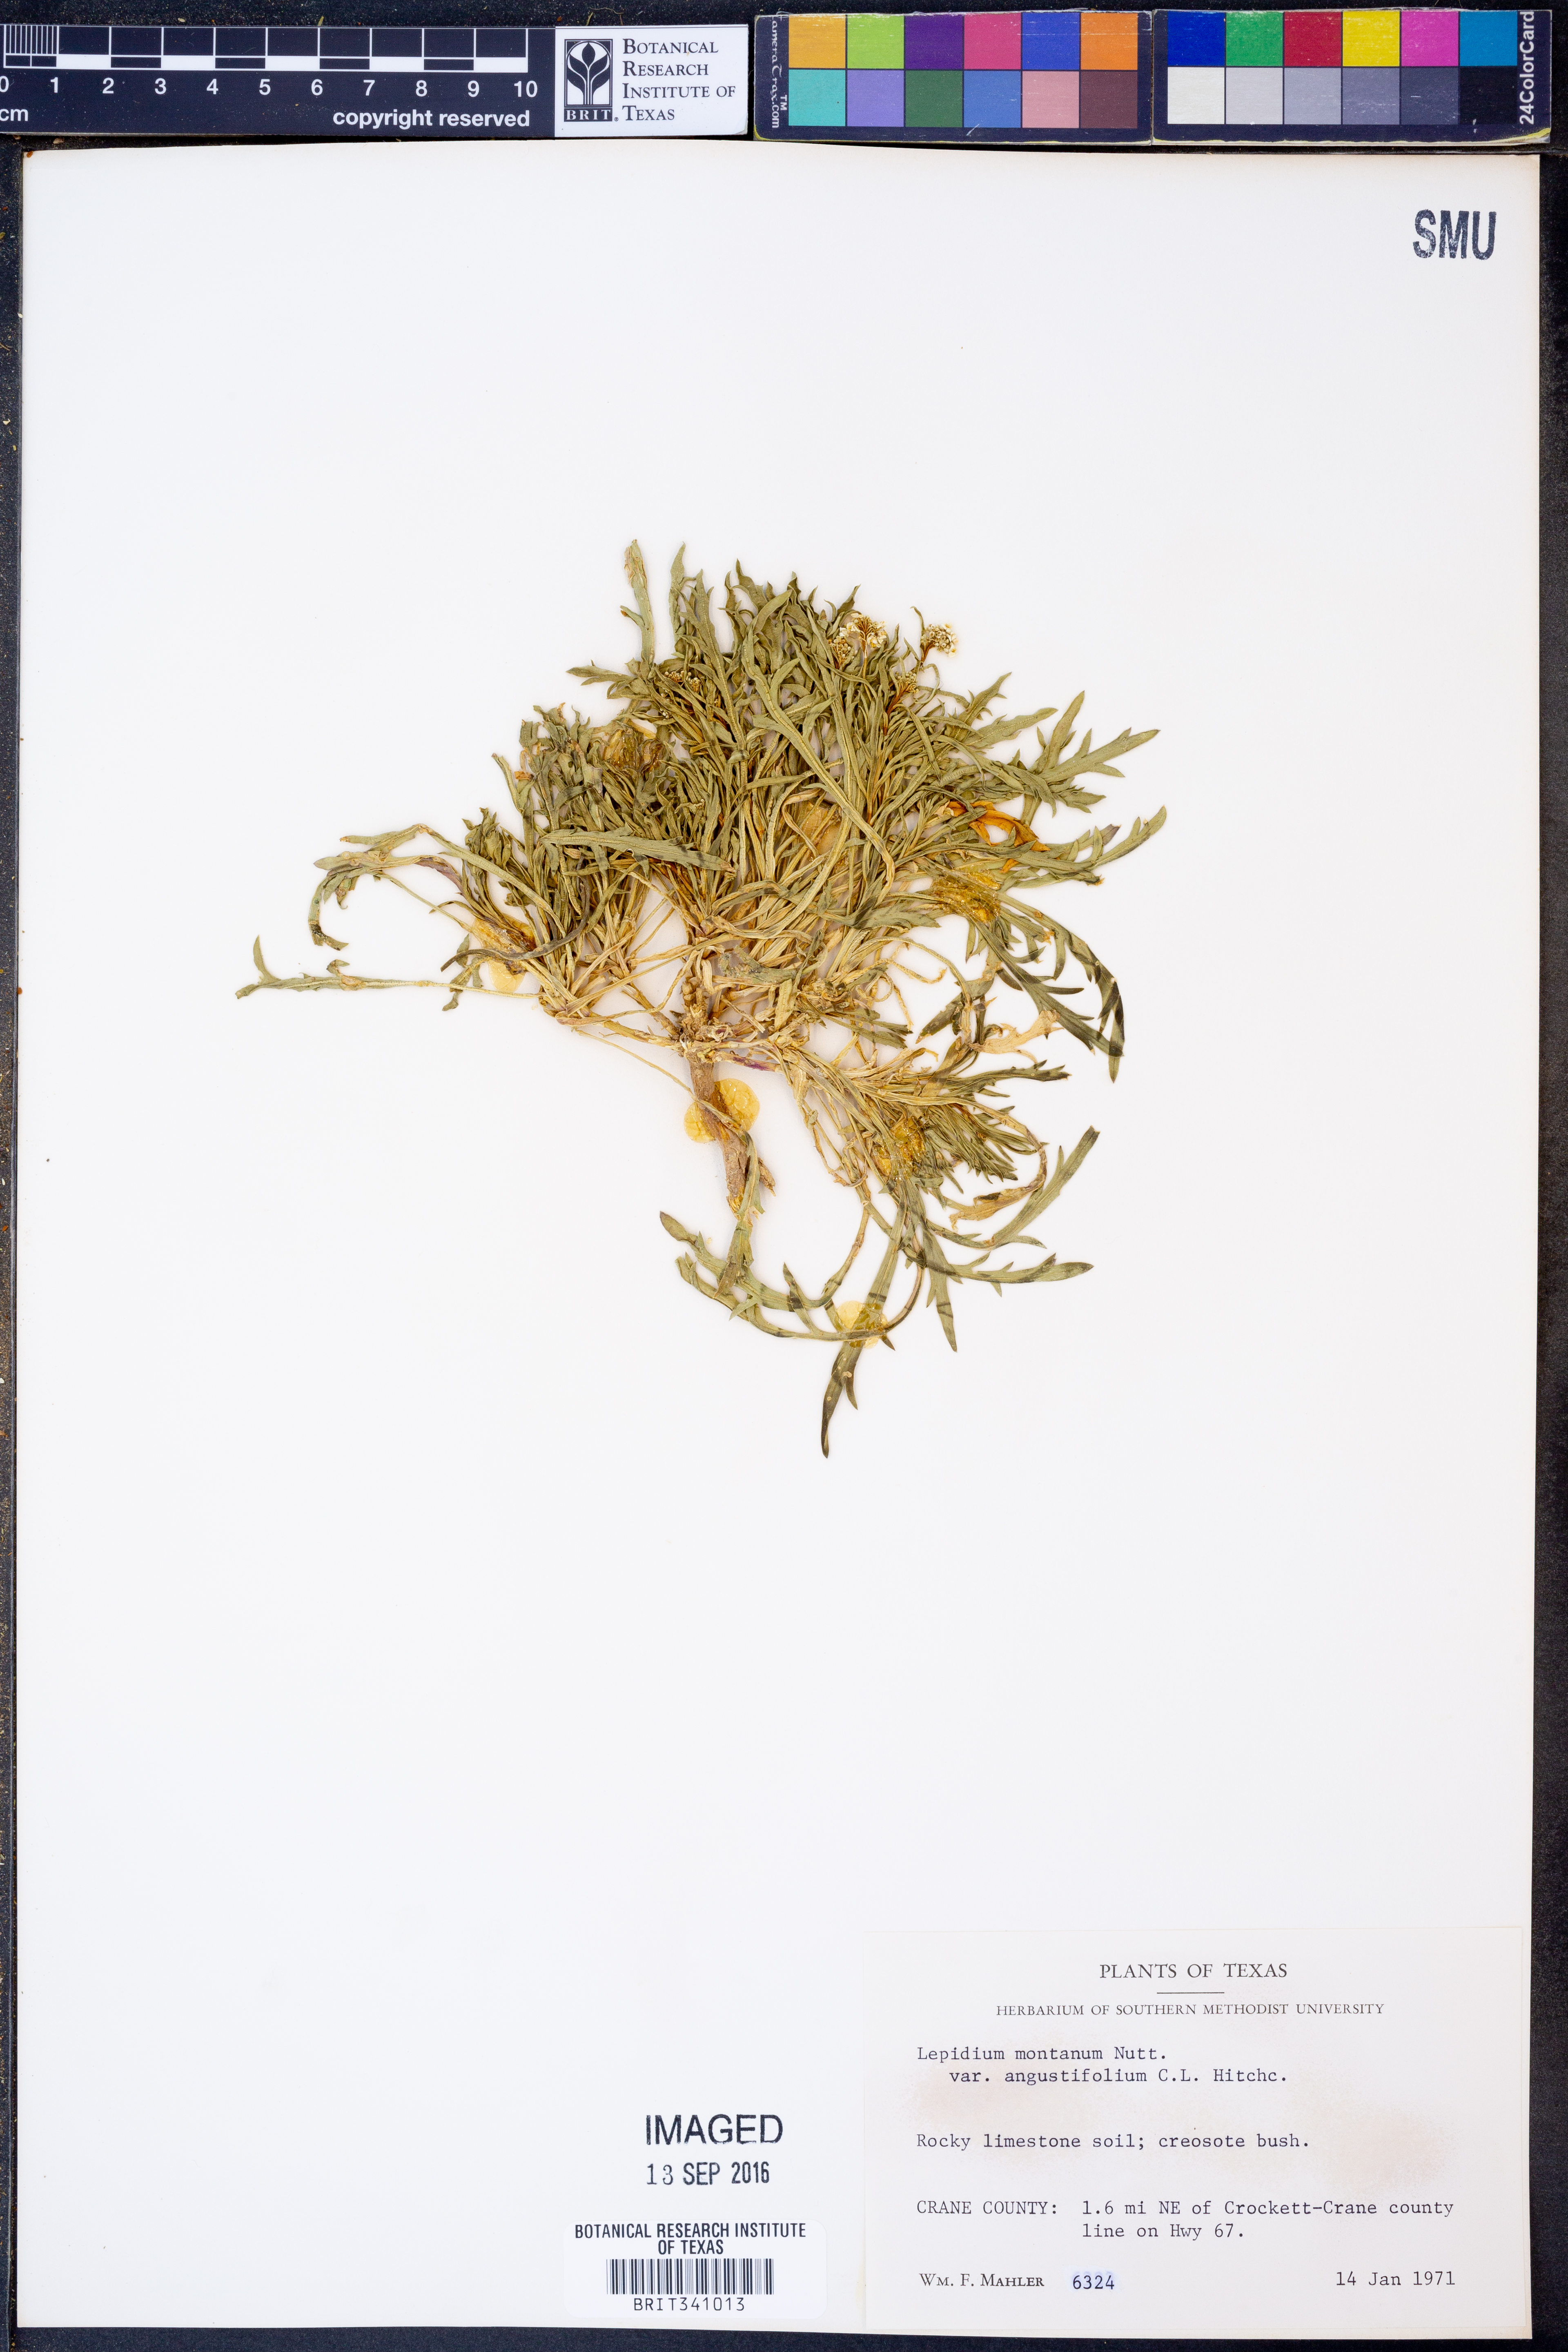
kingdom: Plantae
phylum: Tracheophyta
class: Magnoliopsida
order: Brassicales
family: Brassicaceae
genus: Lepidium
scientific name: Lepidium alyssoides
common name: Mesa pepperweed
